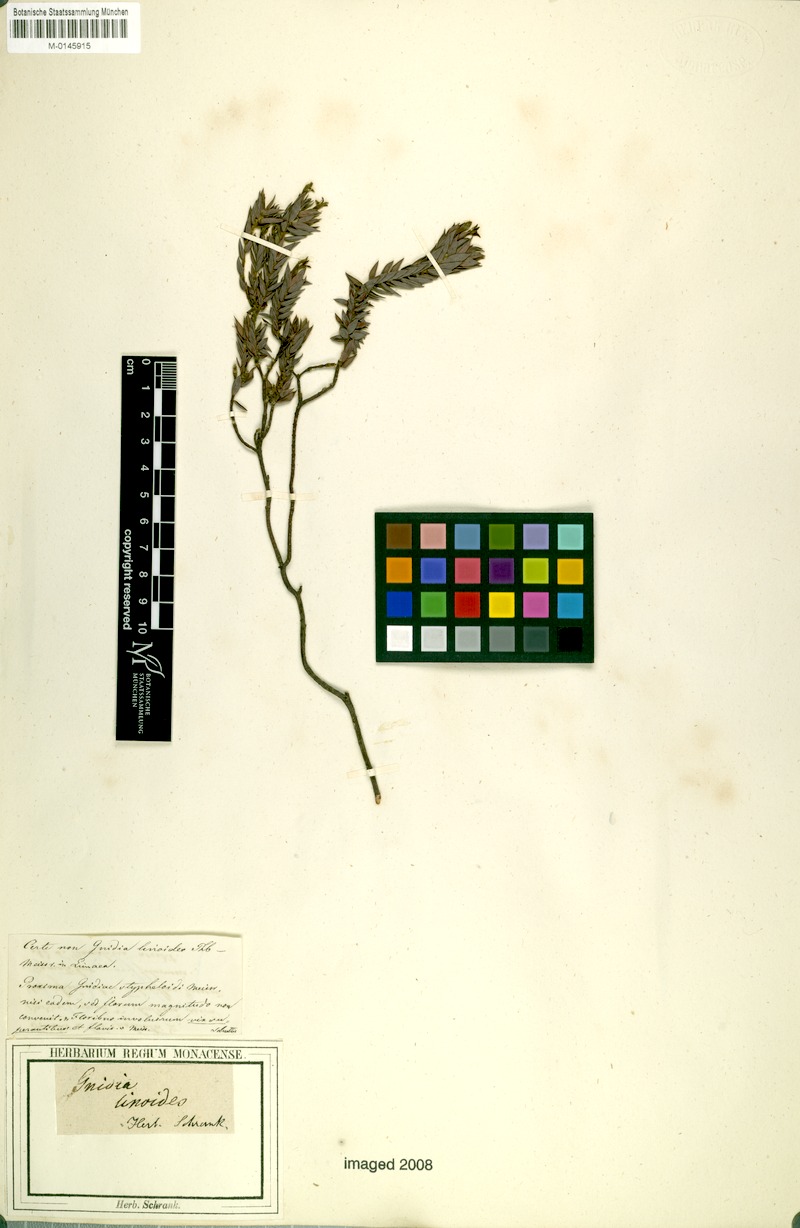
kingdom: Plantae
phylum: Tracheophyta
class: Magnoliopsida
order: Malvales
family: Thymelaeaceae
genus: Gnidia
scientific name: Gnidia styphelioides
